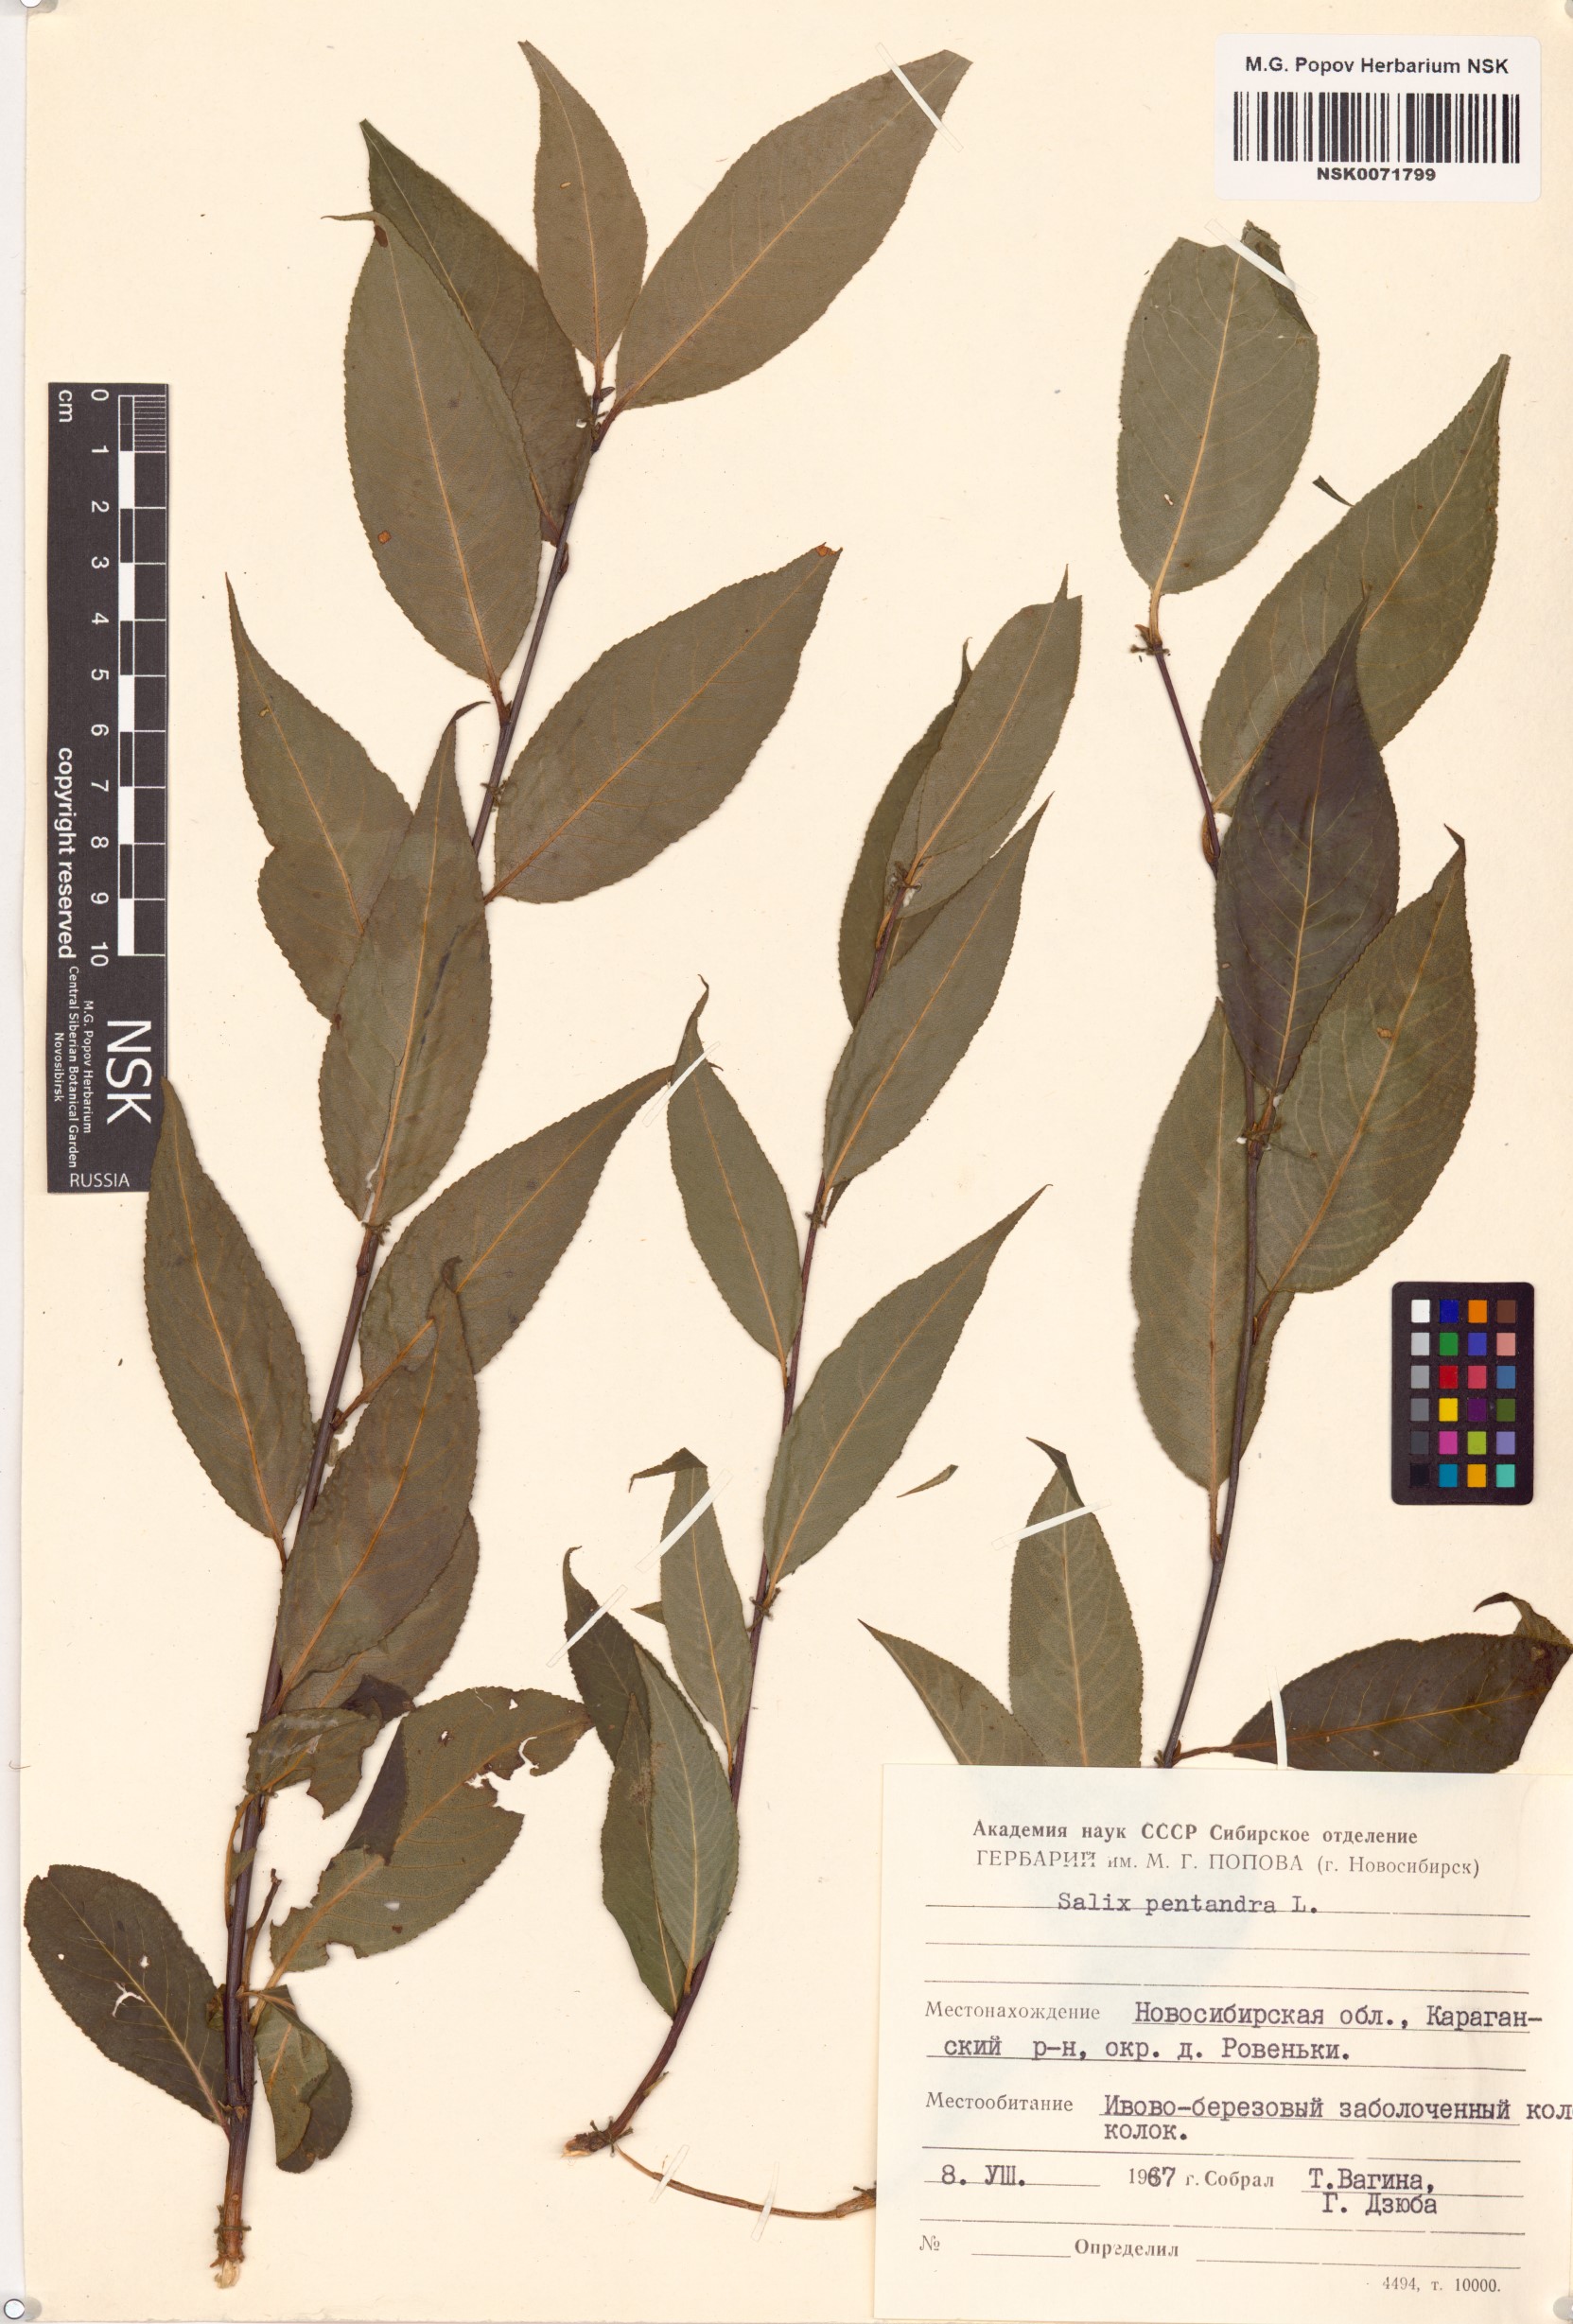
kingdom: Plantae
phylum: Tracheophyta
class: Magnoliopsida
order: Malpighiales
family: Salicaceae
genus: Salix
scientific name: Salix pentandra
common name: Bay willow
